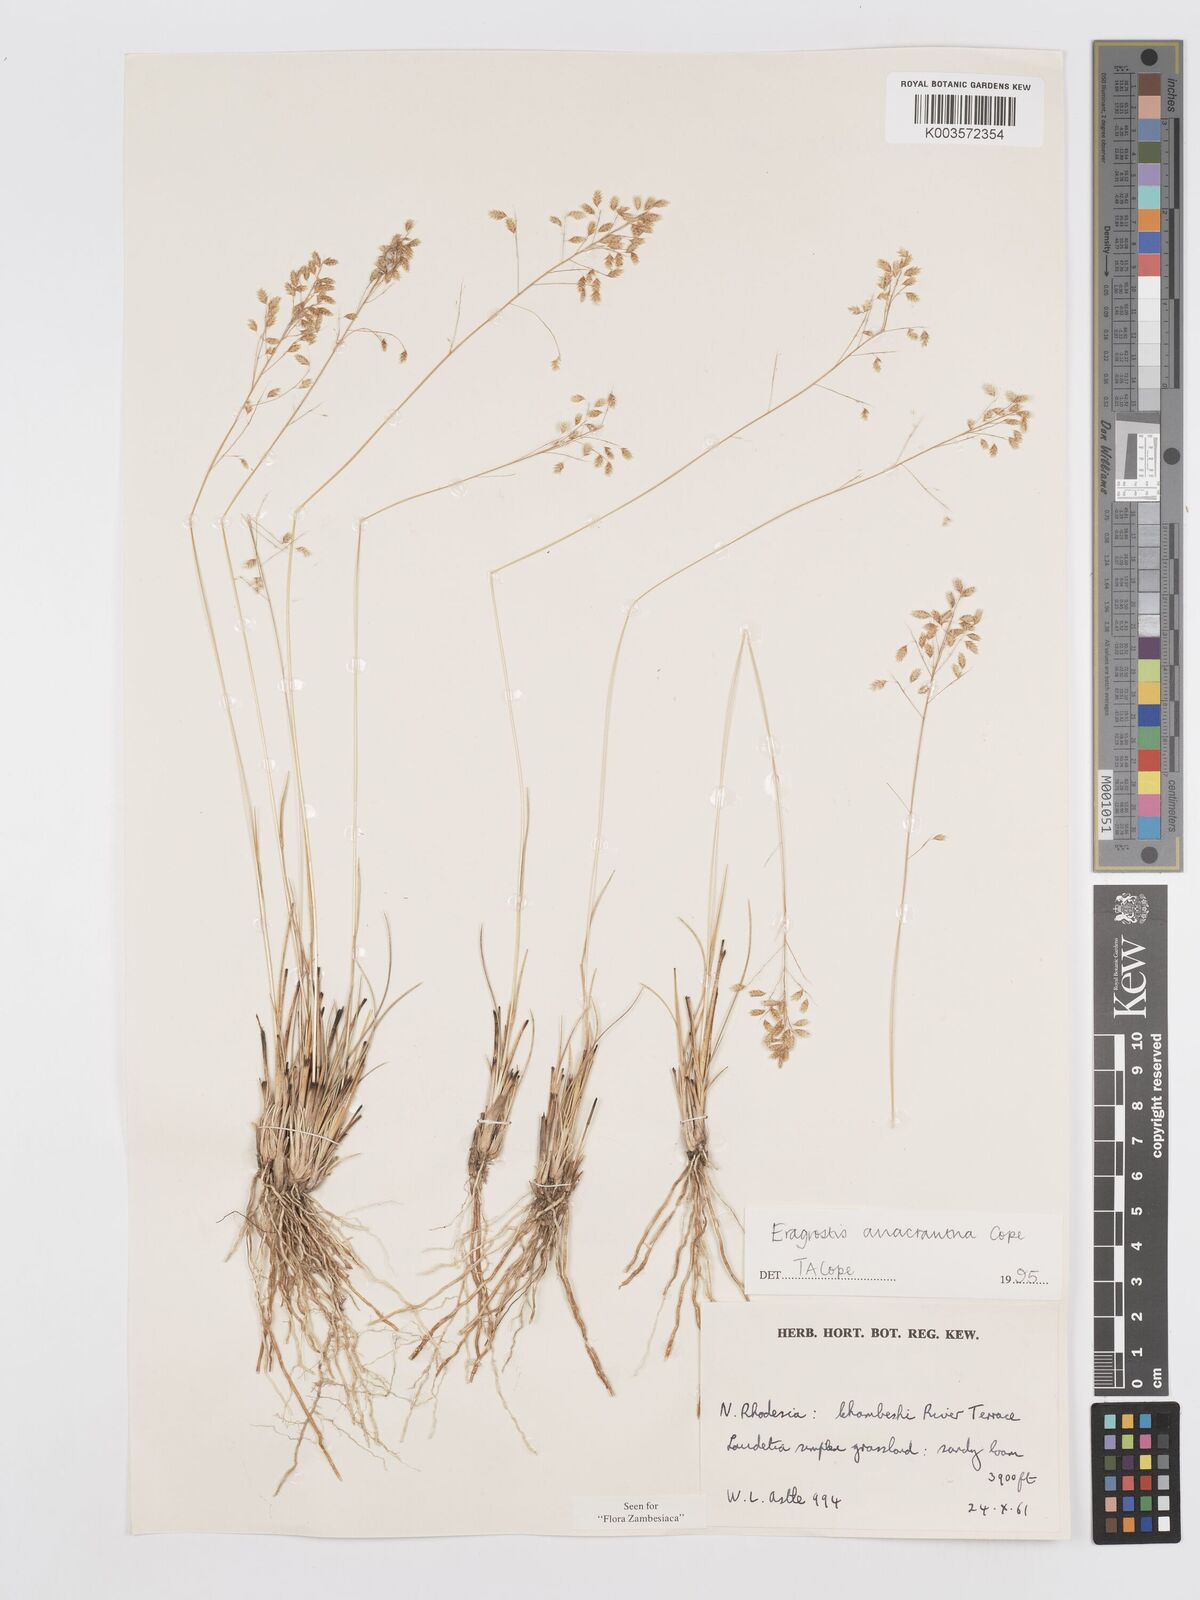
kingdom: Plantae
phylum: Tracheophyta
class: Liliopsida
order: Poales
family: Poaceae
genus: Eragrostis
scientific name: Eragrostis anacrantha
